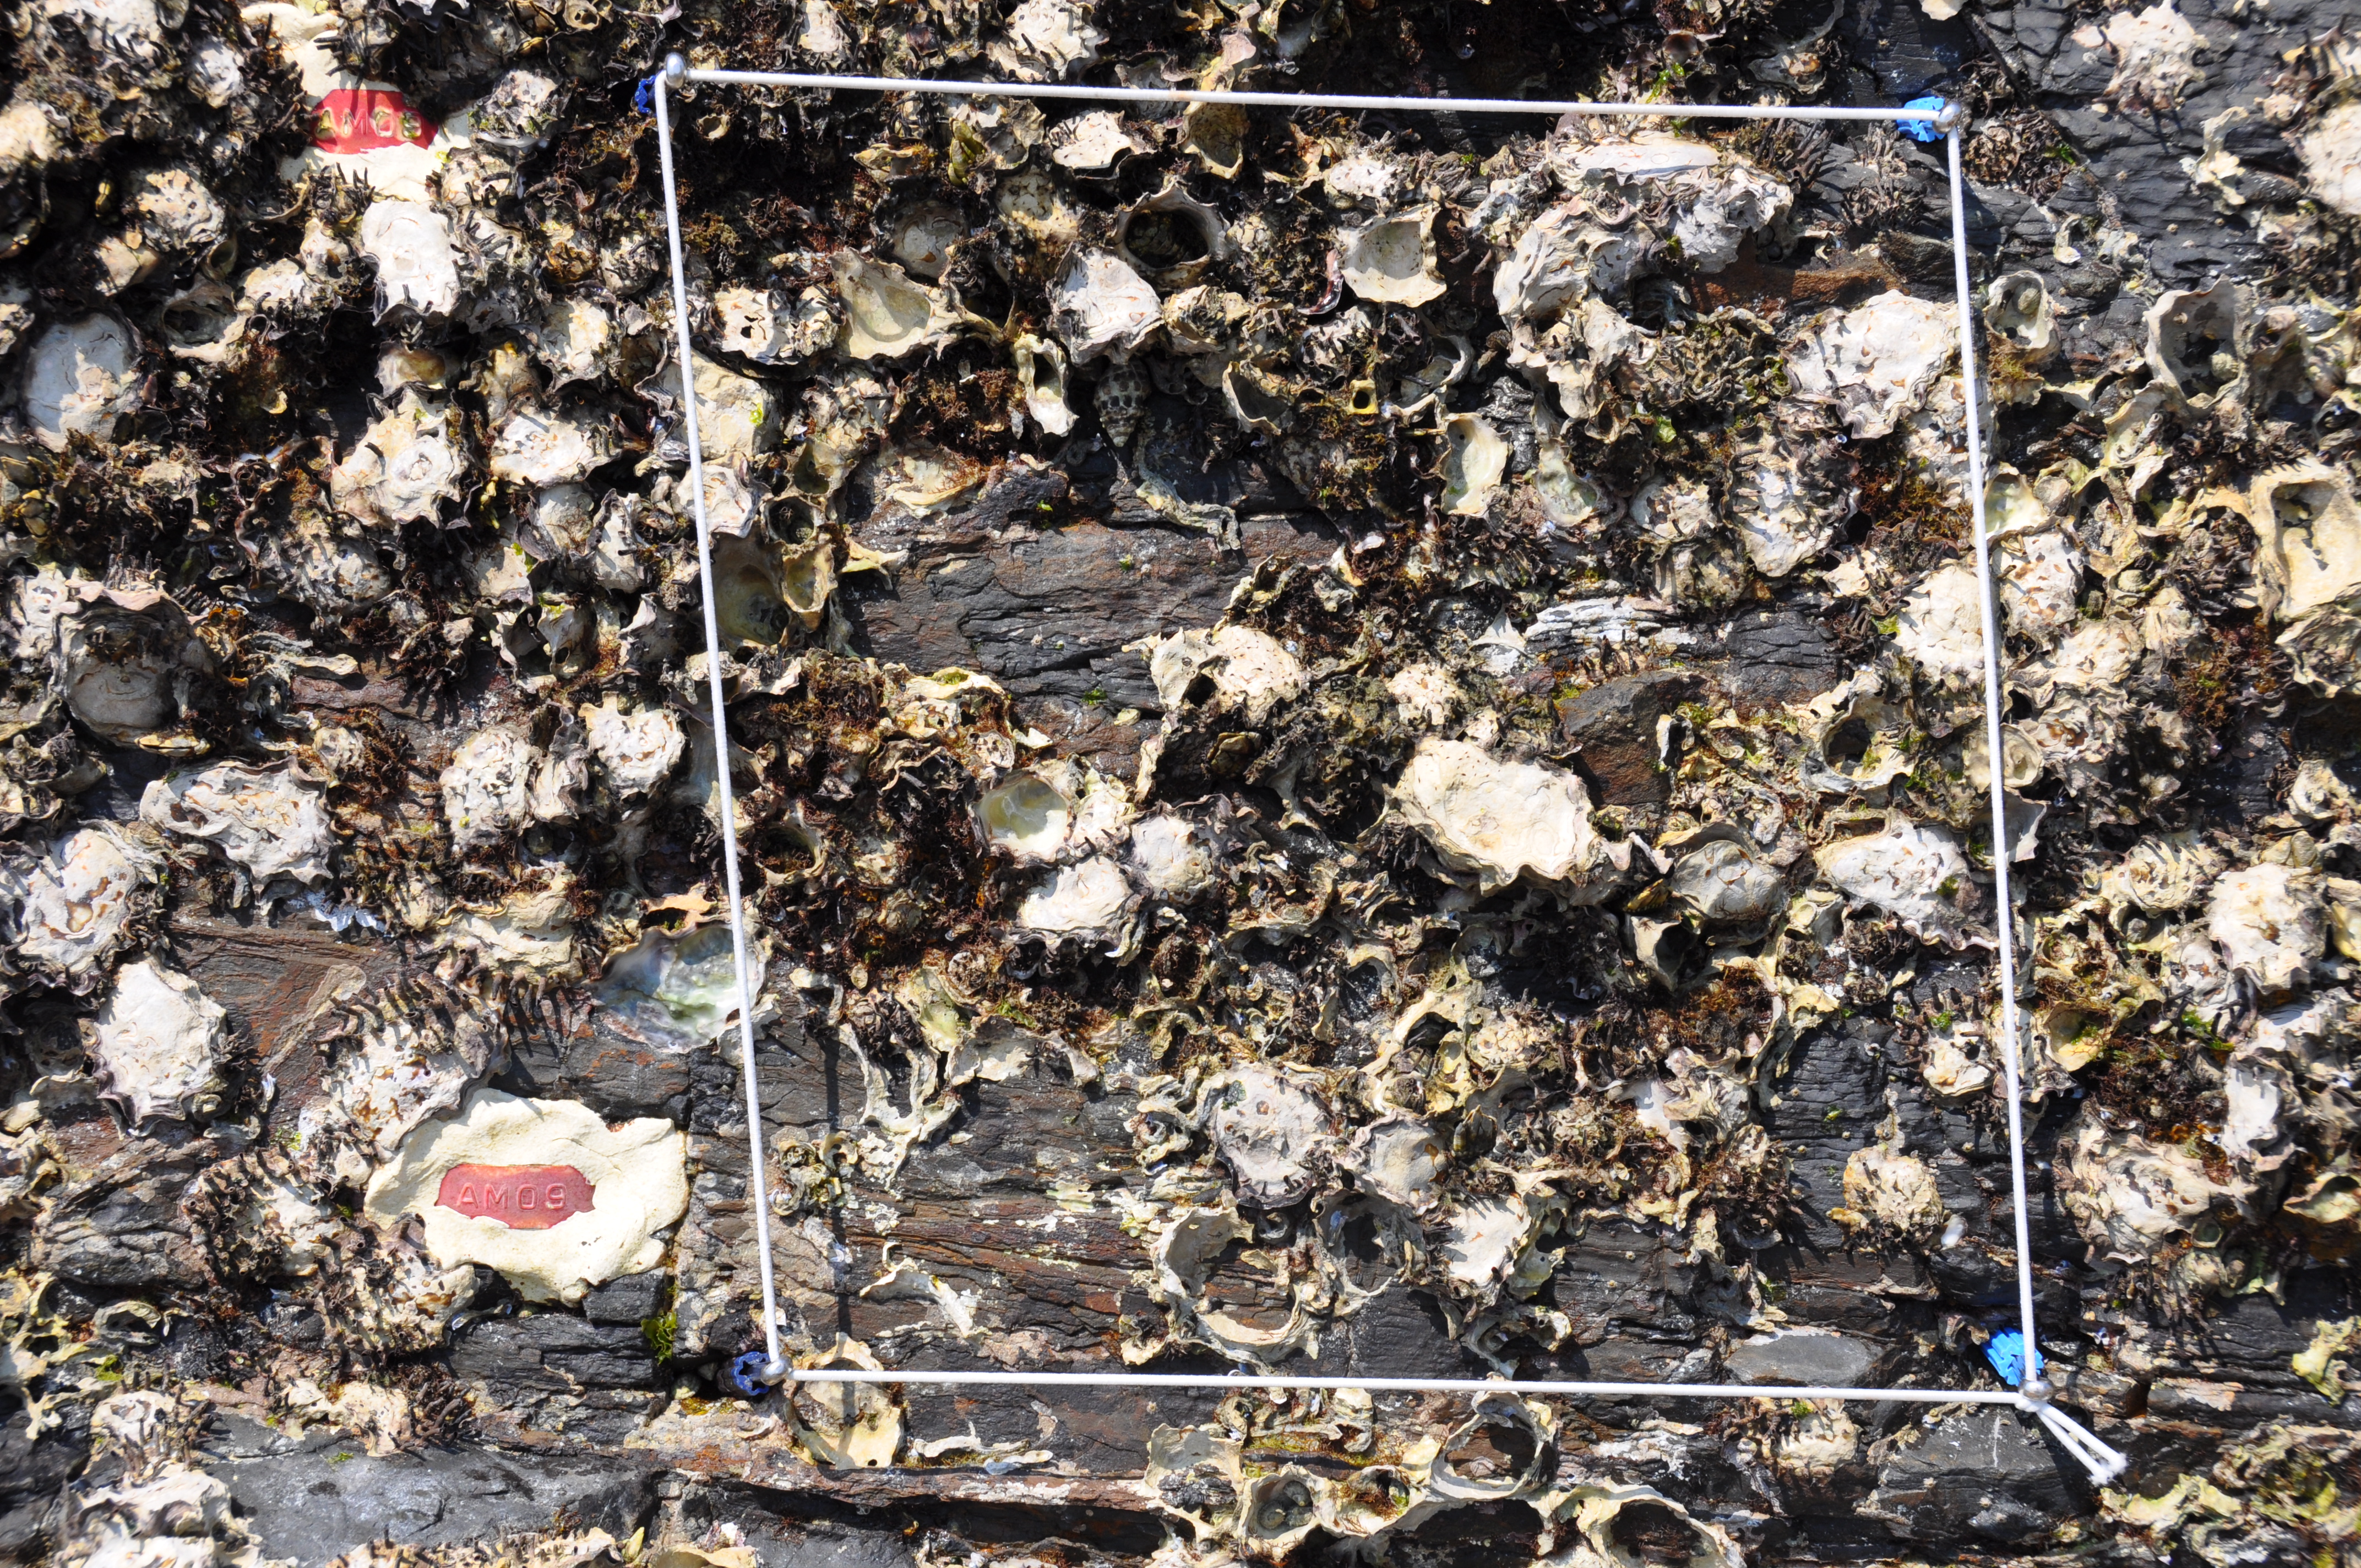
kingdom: Chromista
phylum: Ochrophyta
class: Phaeophyceae
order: Ishigeales
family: Ishigeaceae
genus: Ishige
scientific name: Ishige okamurae
